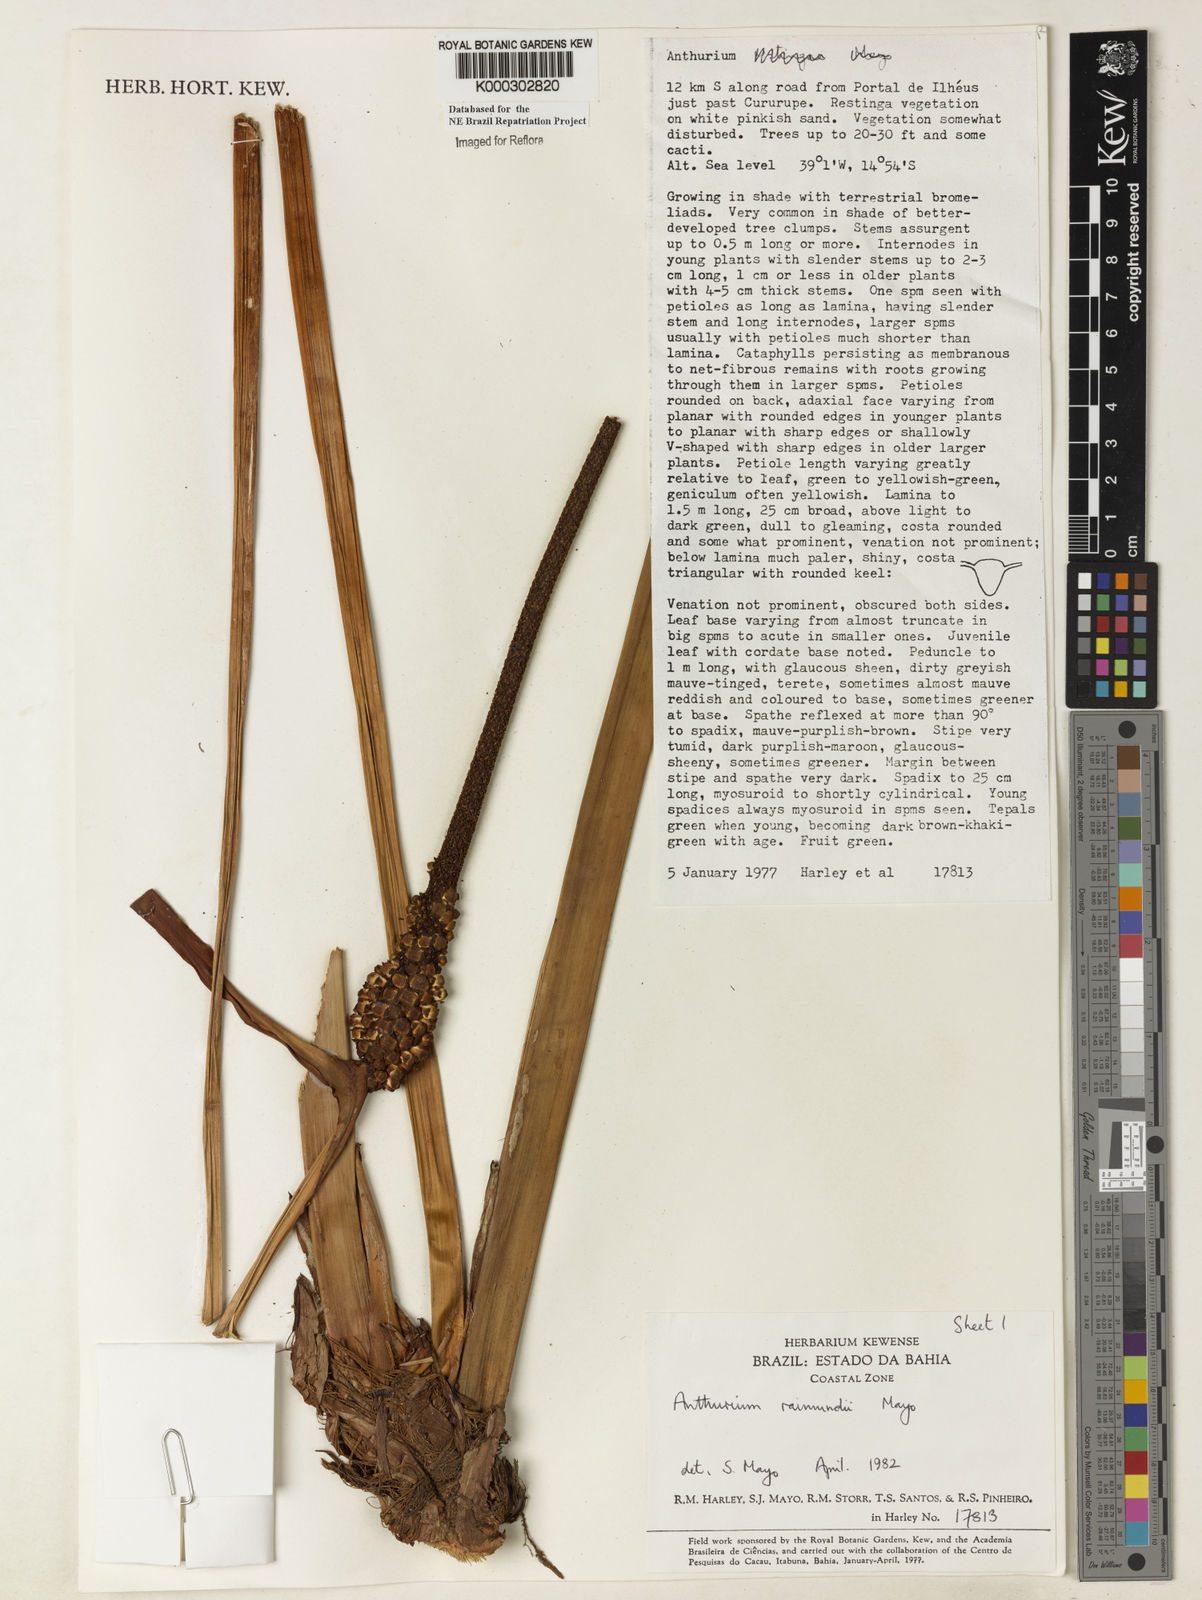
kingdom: Plantae
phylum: Tracheophyta
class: Liliopsida
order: Alismatales
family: Araceae
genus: Anthurium
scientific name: Anthurium raimundii
